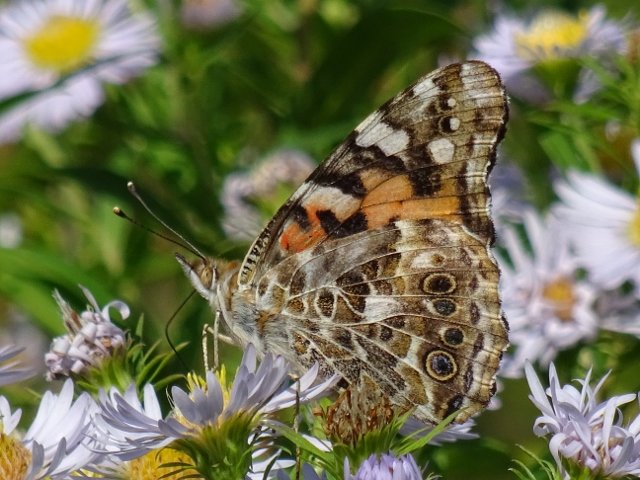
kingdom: Animalia
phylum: Arthropoda
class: Insecta
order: Lepidoptera
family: Nymphalidae
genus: Vanessa
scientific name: Vanessa cardui
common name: Painted Lady
